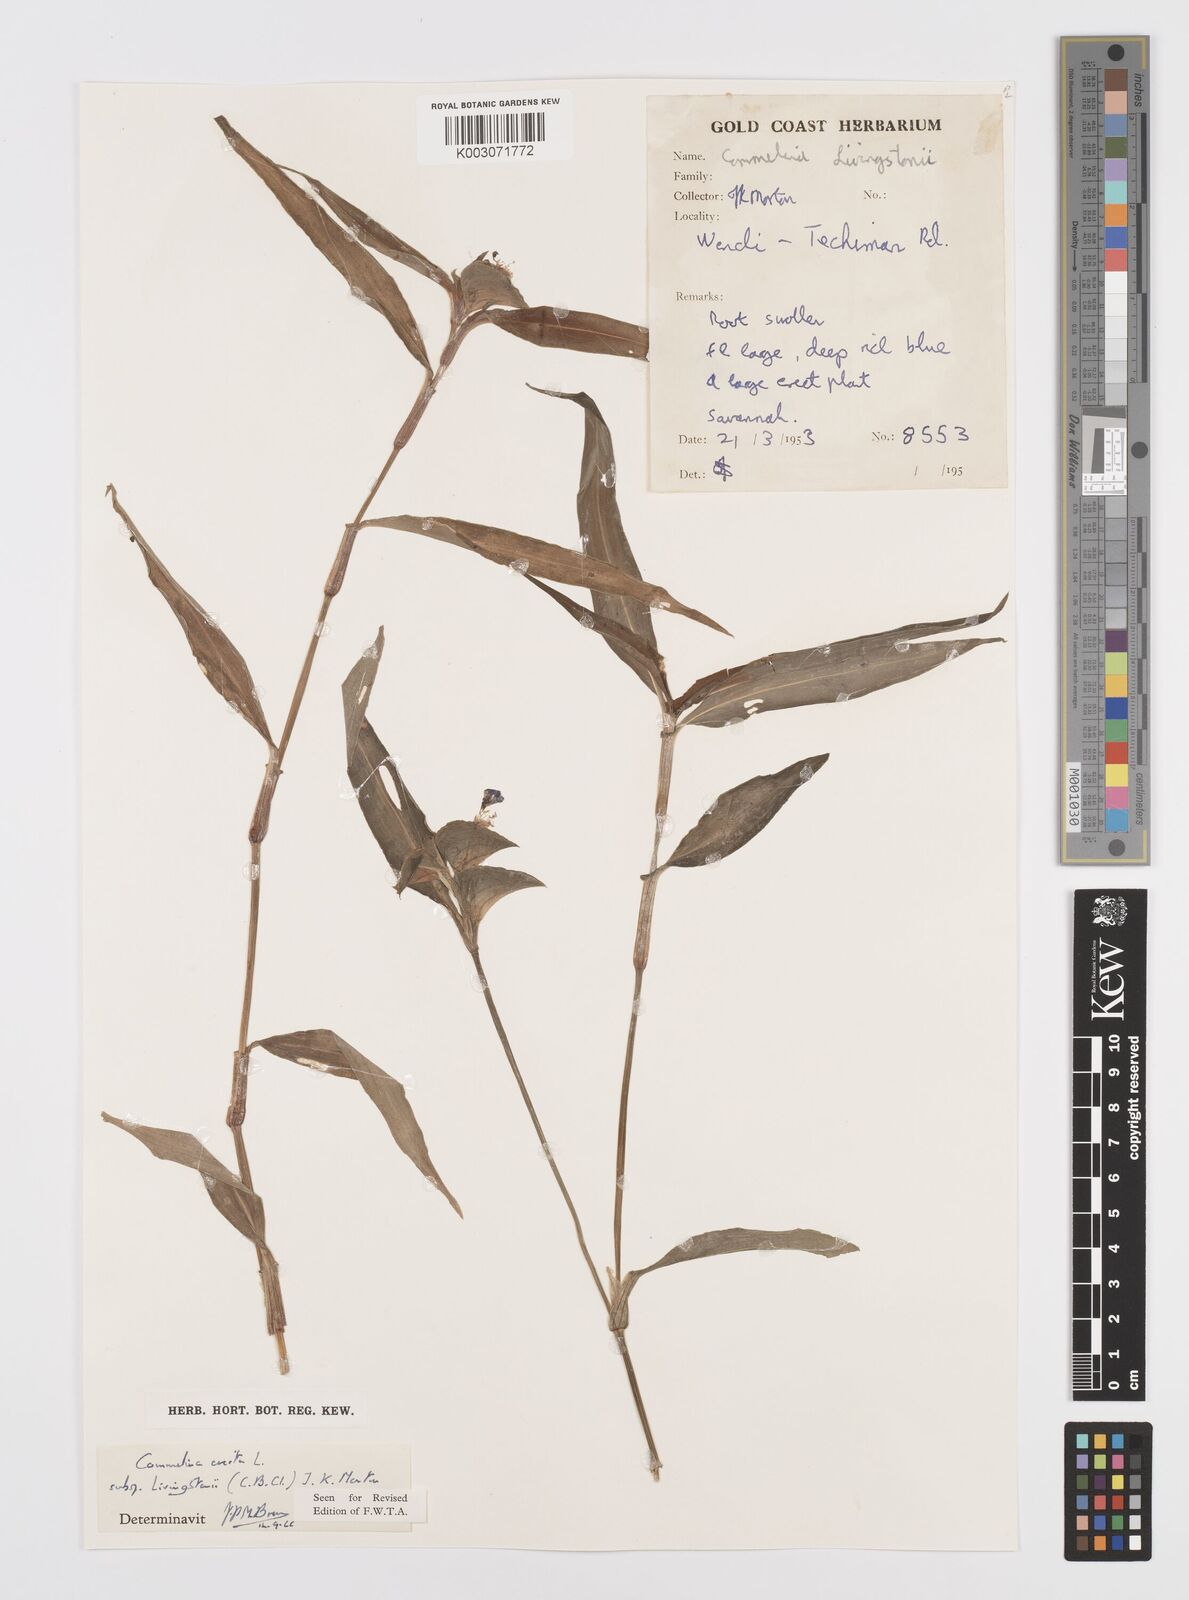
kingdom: Plantae
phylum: Tracheophyta
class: Liliopsida
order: Commelinales
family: Commelinaceae
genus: Commelina
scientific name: Commelina erecta
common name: Blousel blommetjie
